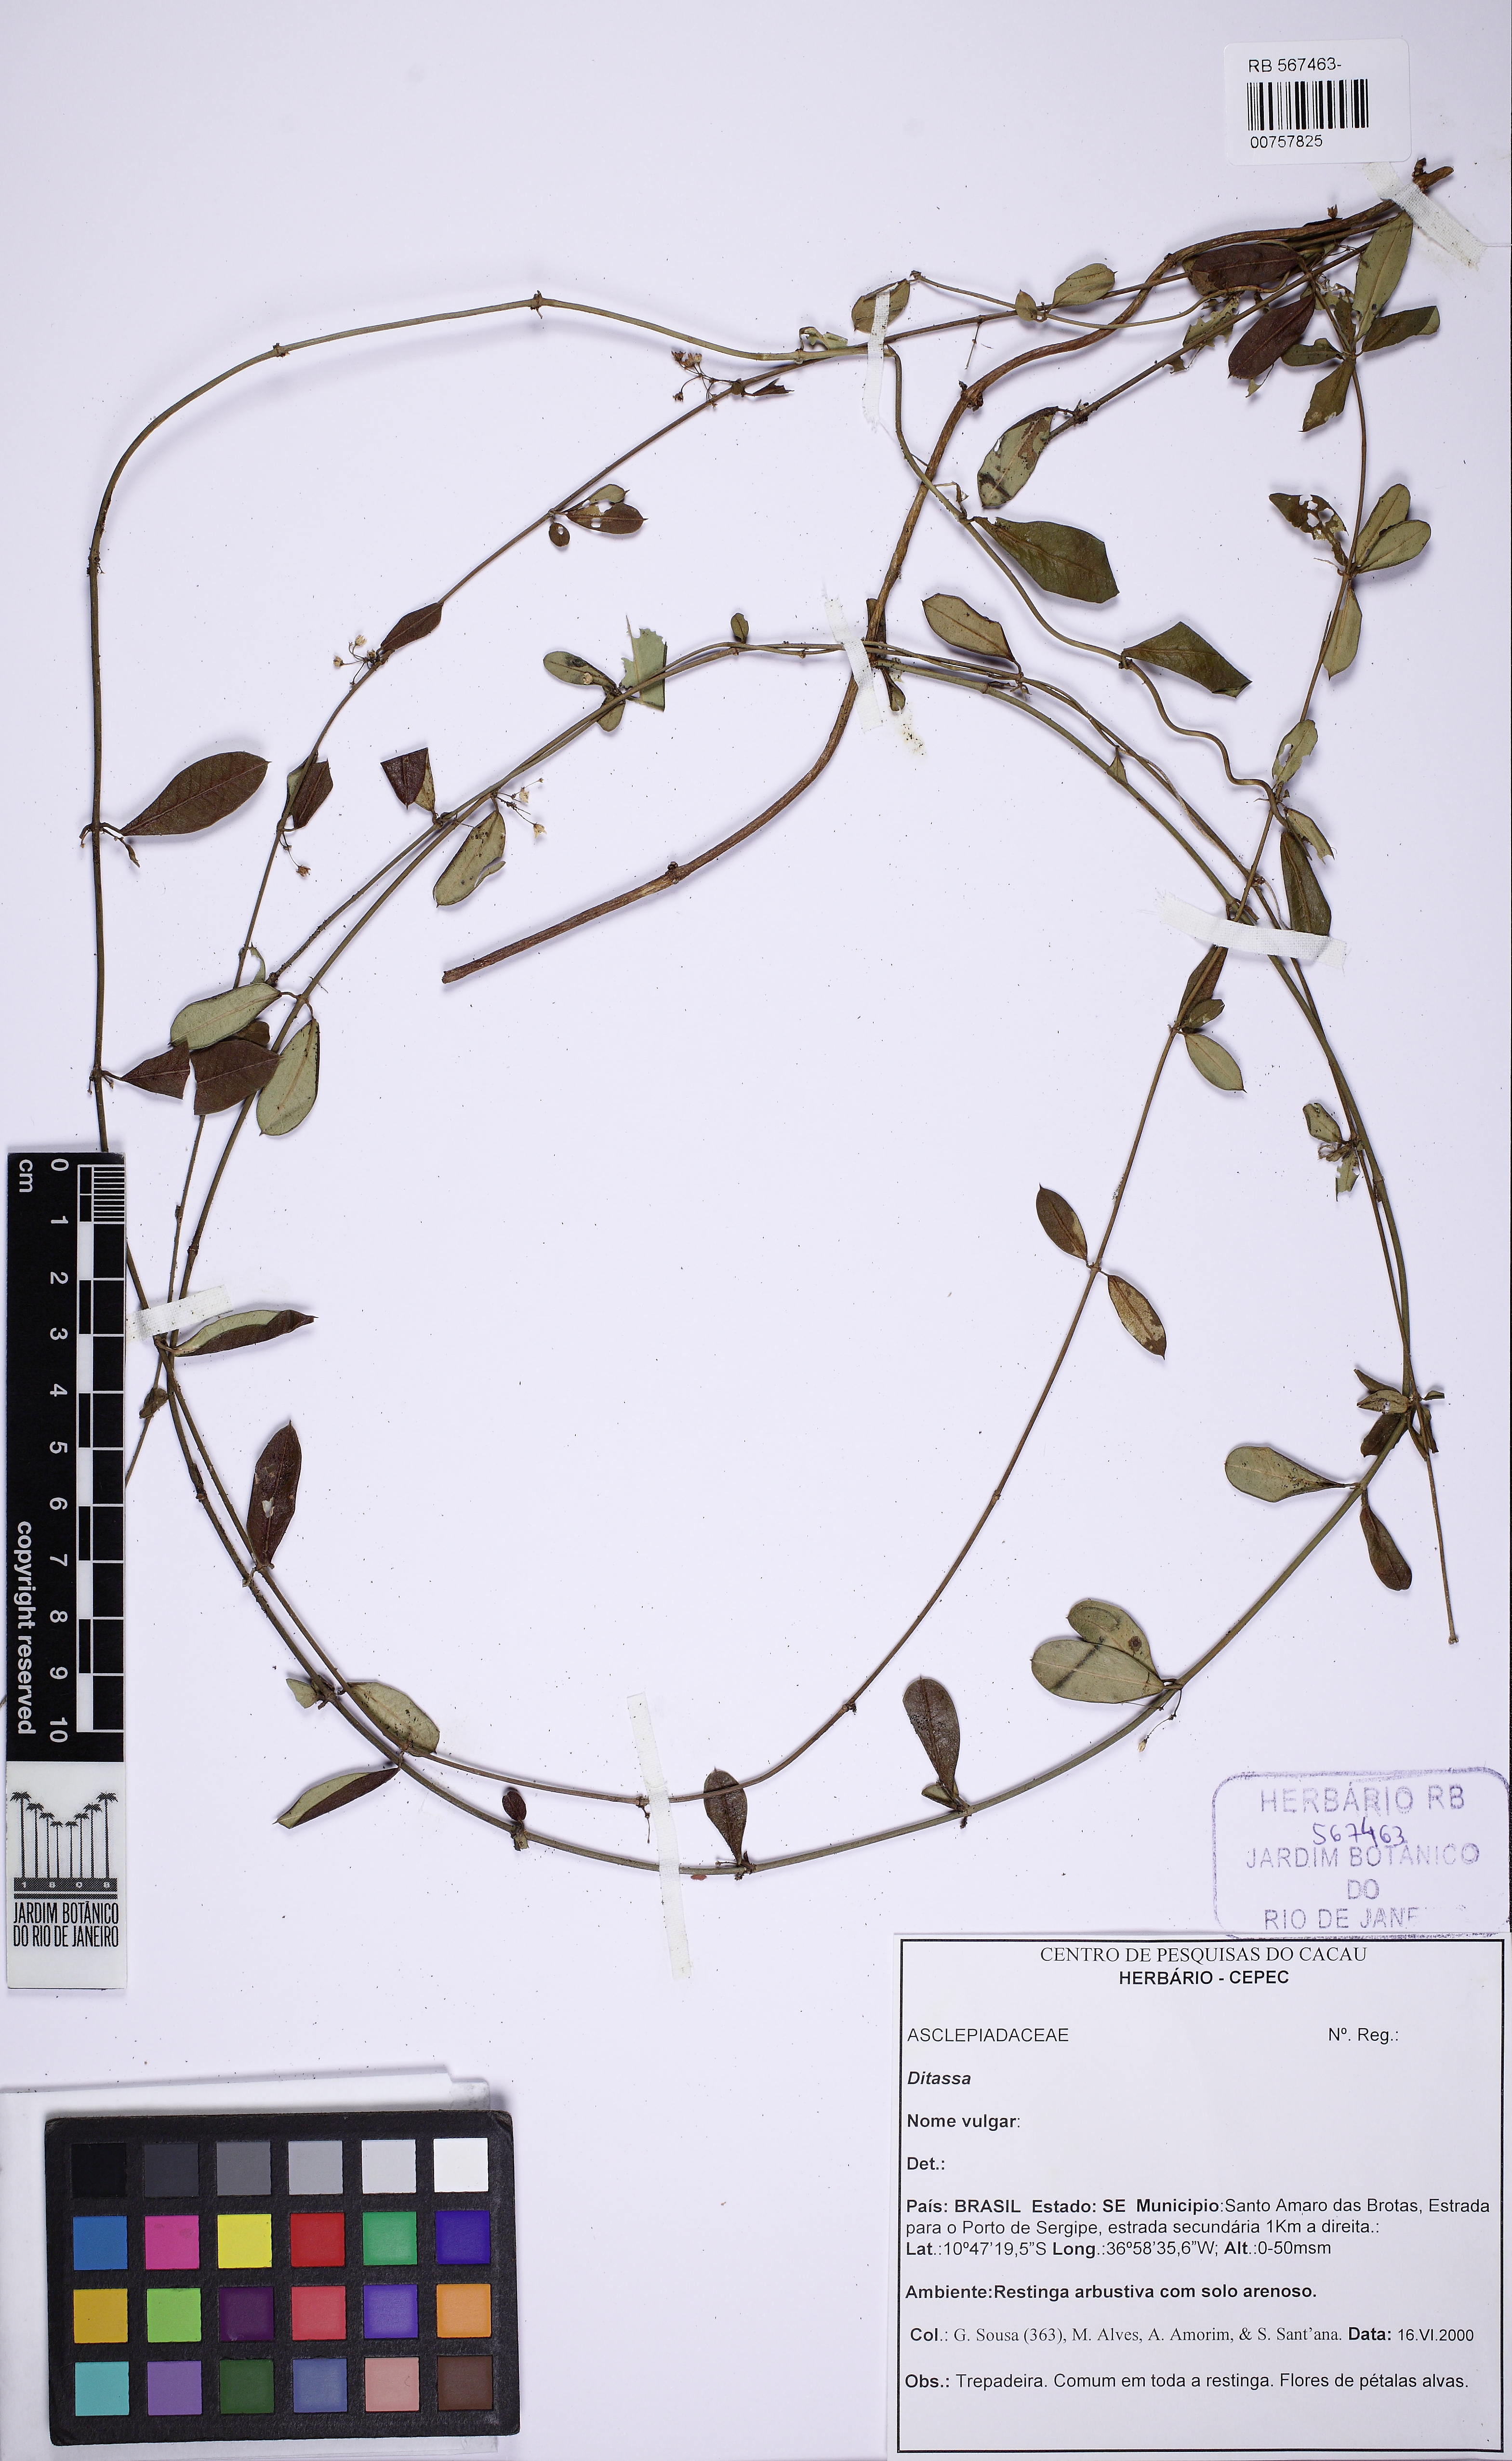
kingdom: Plantae
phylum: Tracheophyta
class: Magnoliopsida
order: Gentianales
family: Apocynaceae
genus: Ditassa
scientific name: Ditassa
